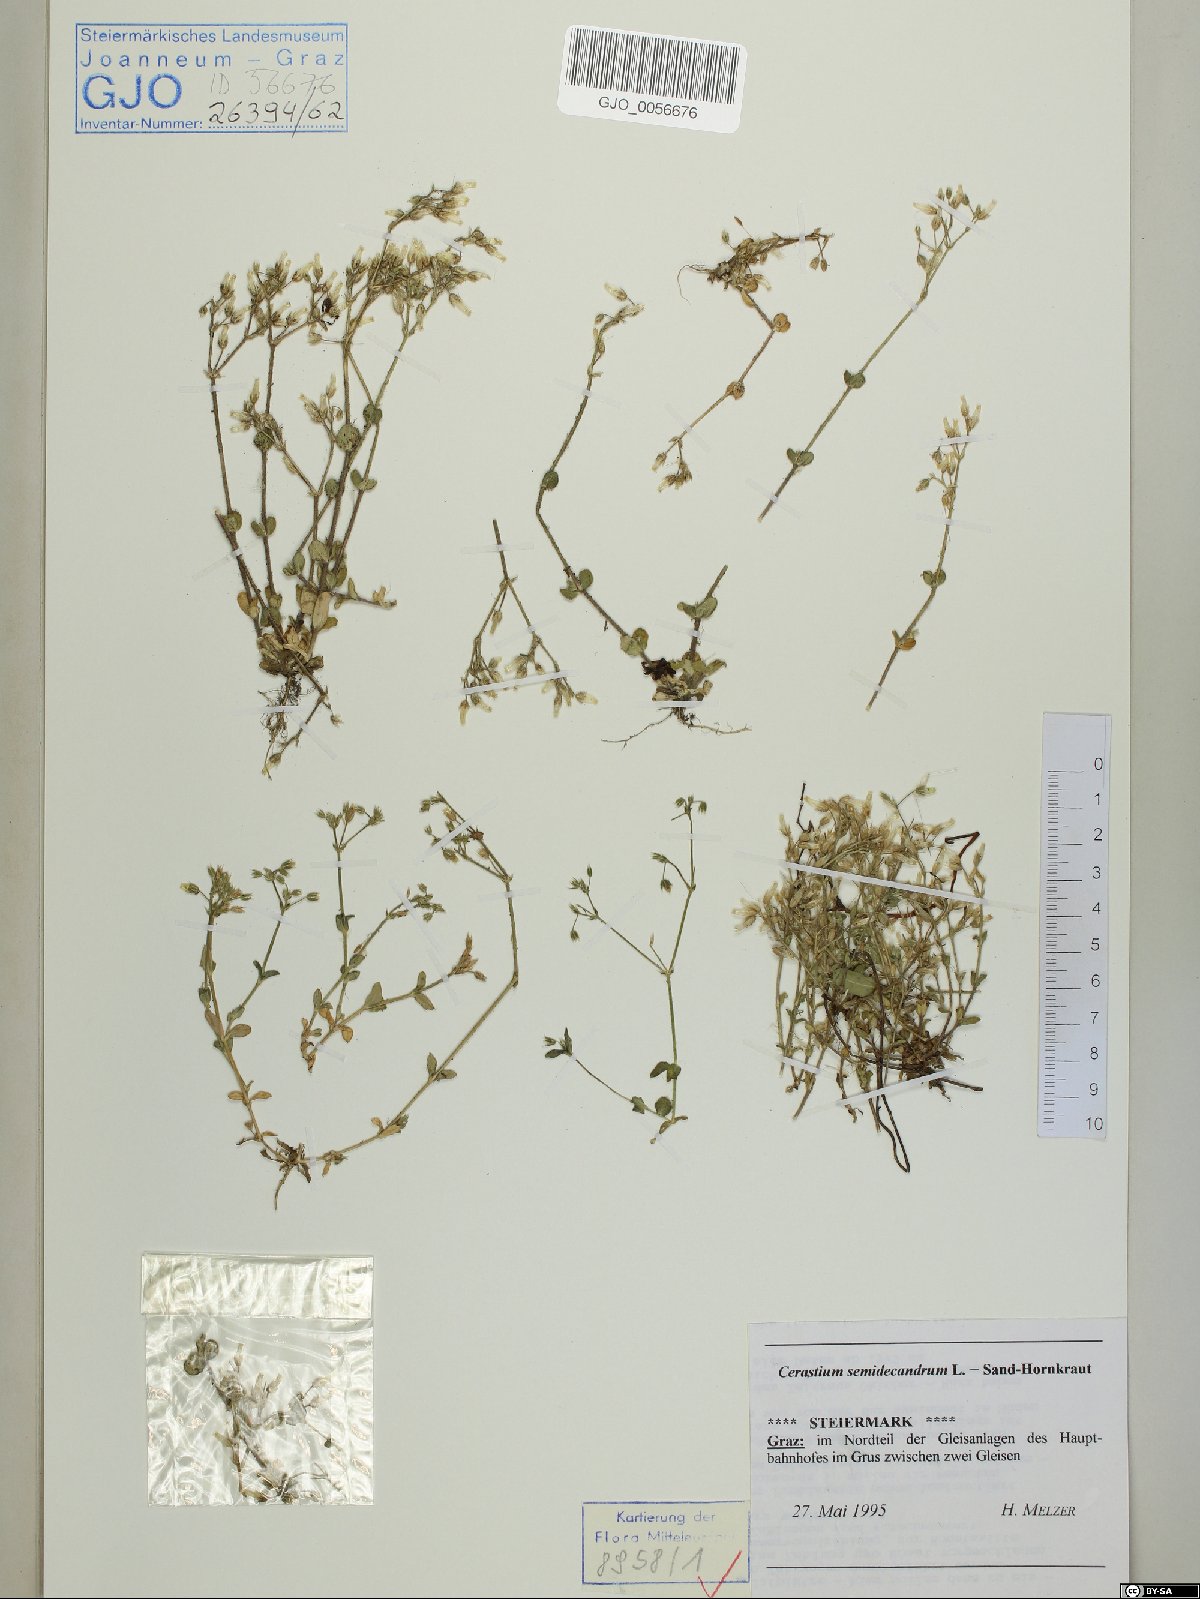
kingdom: Plantae
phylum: Tracheophyta
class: Magnoliopsida
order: Caryophyllales
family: Caryophyllaceae
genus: Cerastium
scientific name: Cerastium semidecandrum
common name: Little mouse-ear
